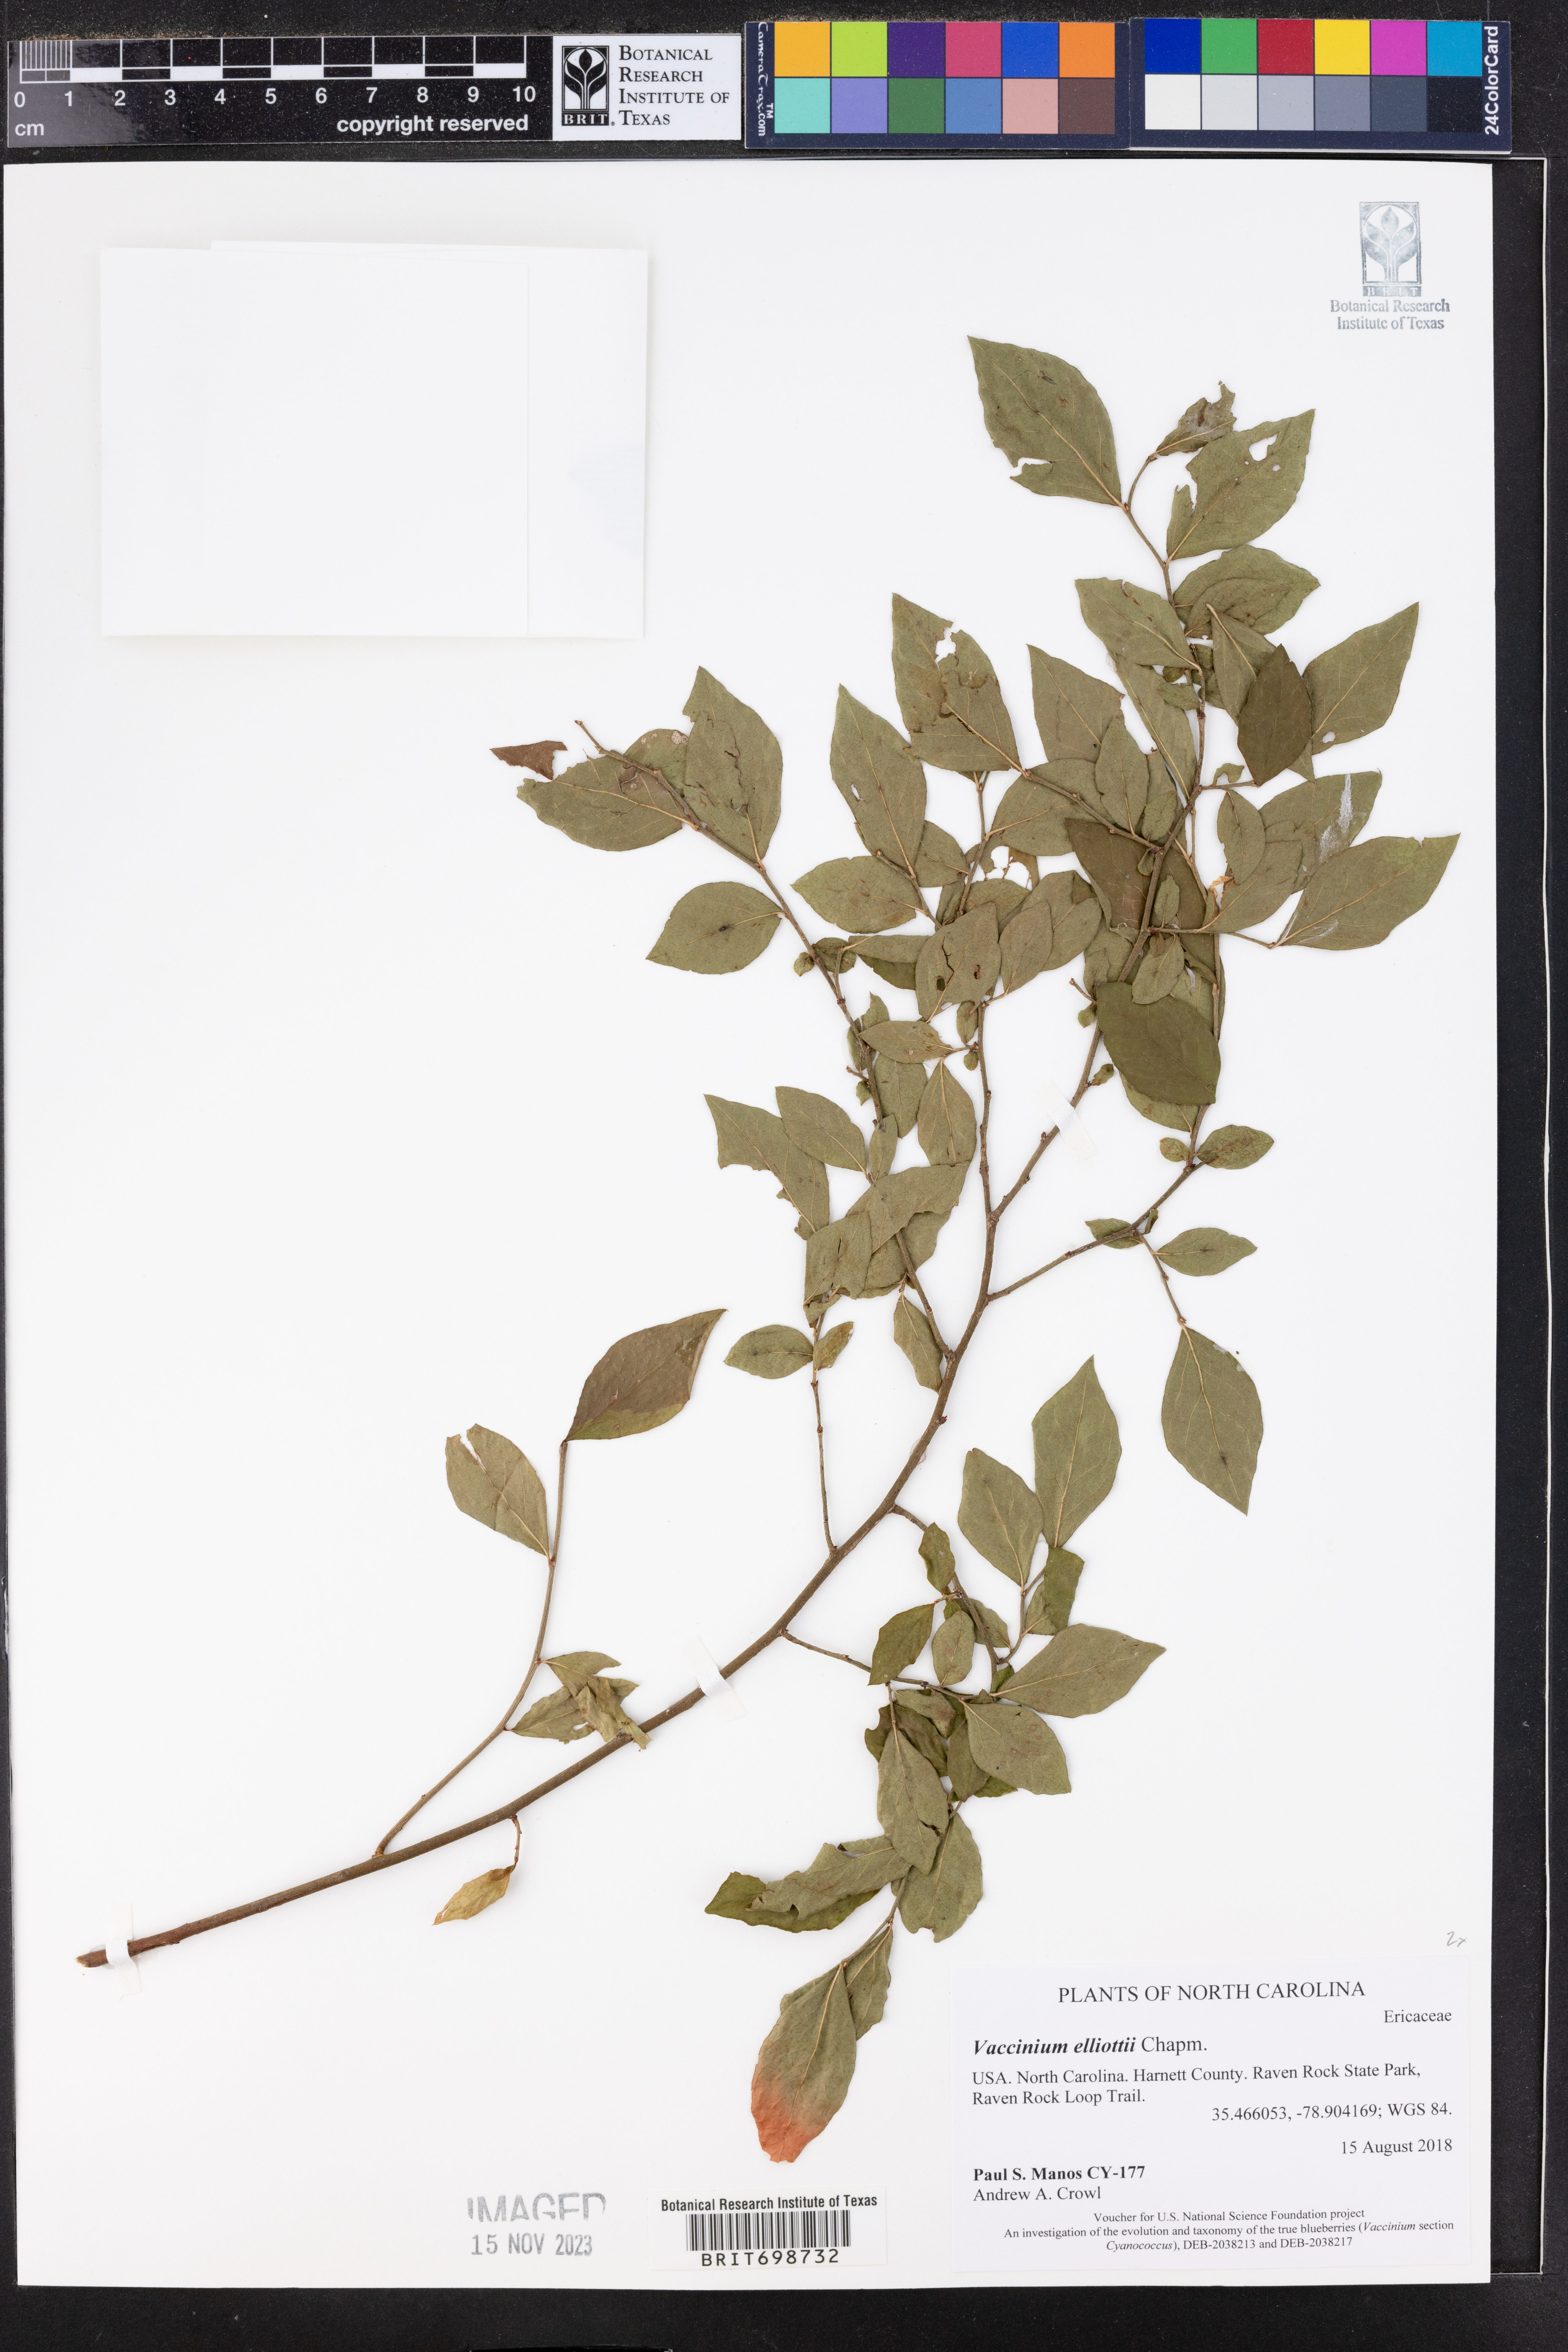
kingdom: Plantae
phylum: Tracheophyta
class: Magnoliopsida
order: Ericales
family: Ericaceae
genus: Vaccinium
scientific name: Vaccinium corymbosum
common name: Blueberry
